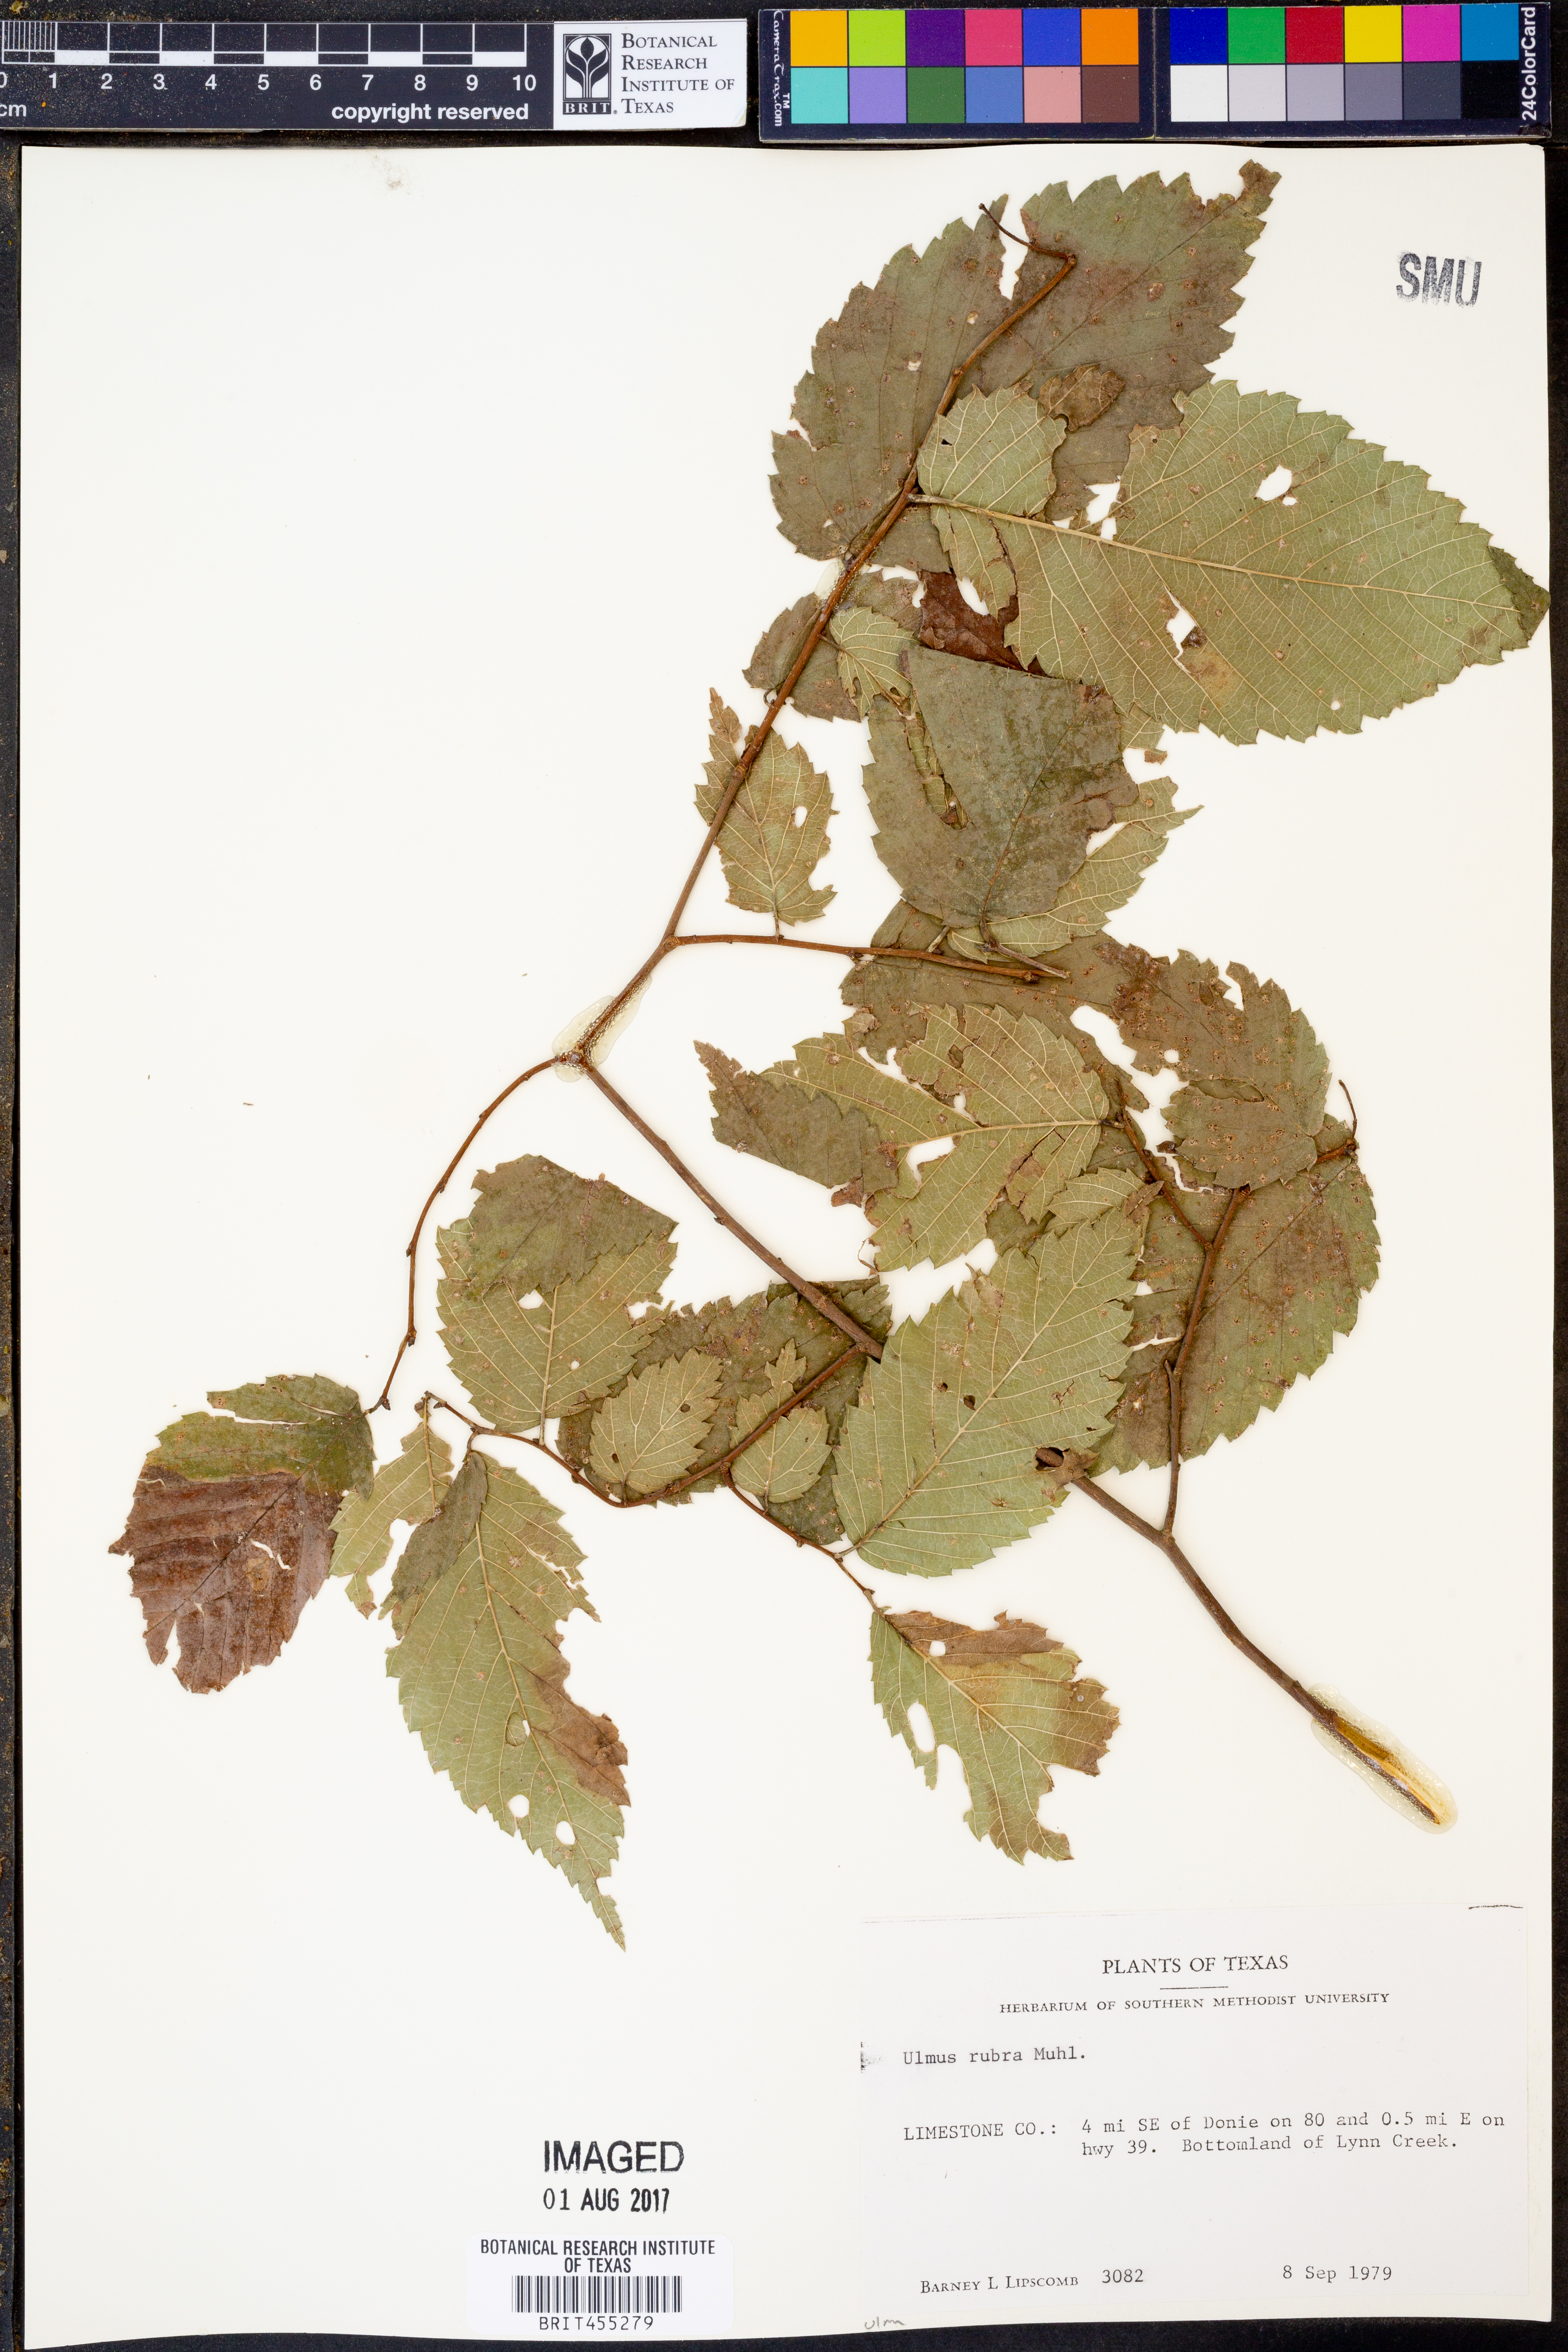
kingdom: Plantae
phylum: Tracheophyta
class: Magnoliopsida
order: Rosales
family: Ulmaceae
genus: Ulmus
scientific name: Ulmus rubra
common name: Slippery elm
